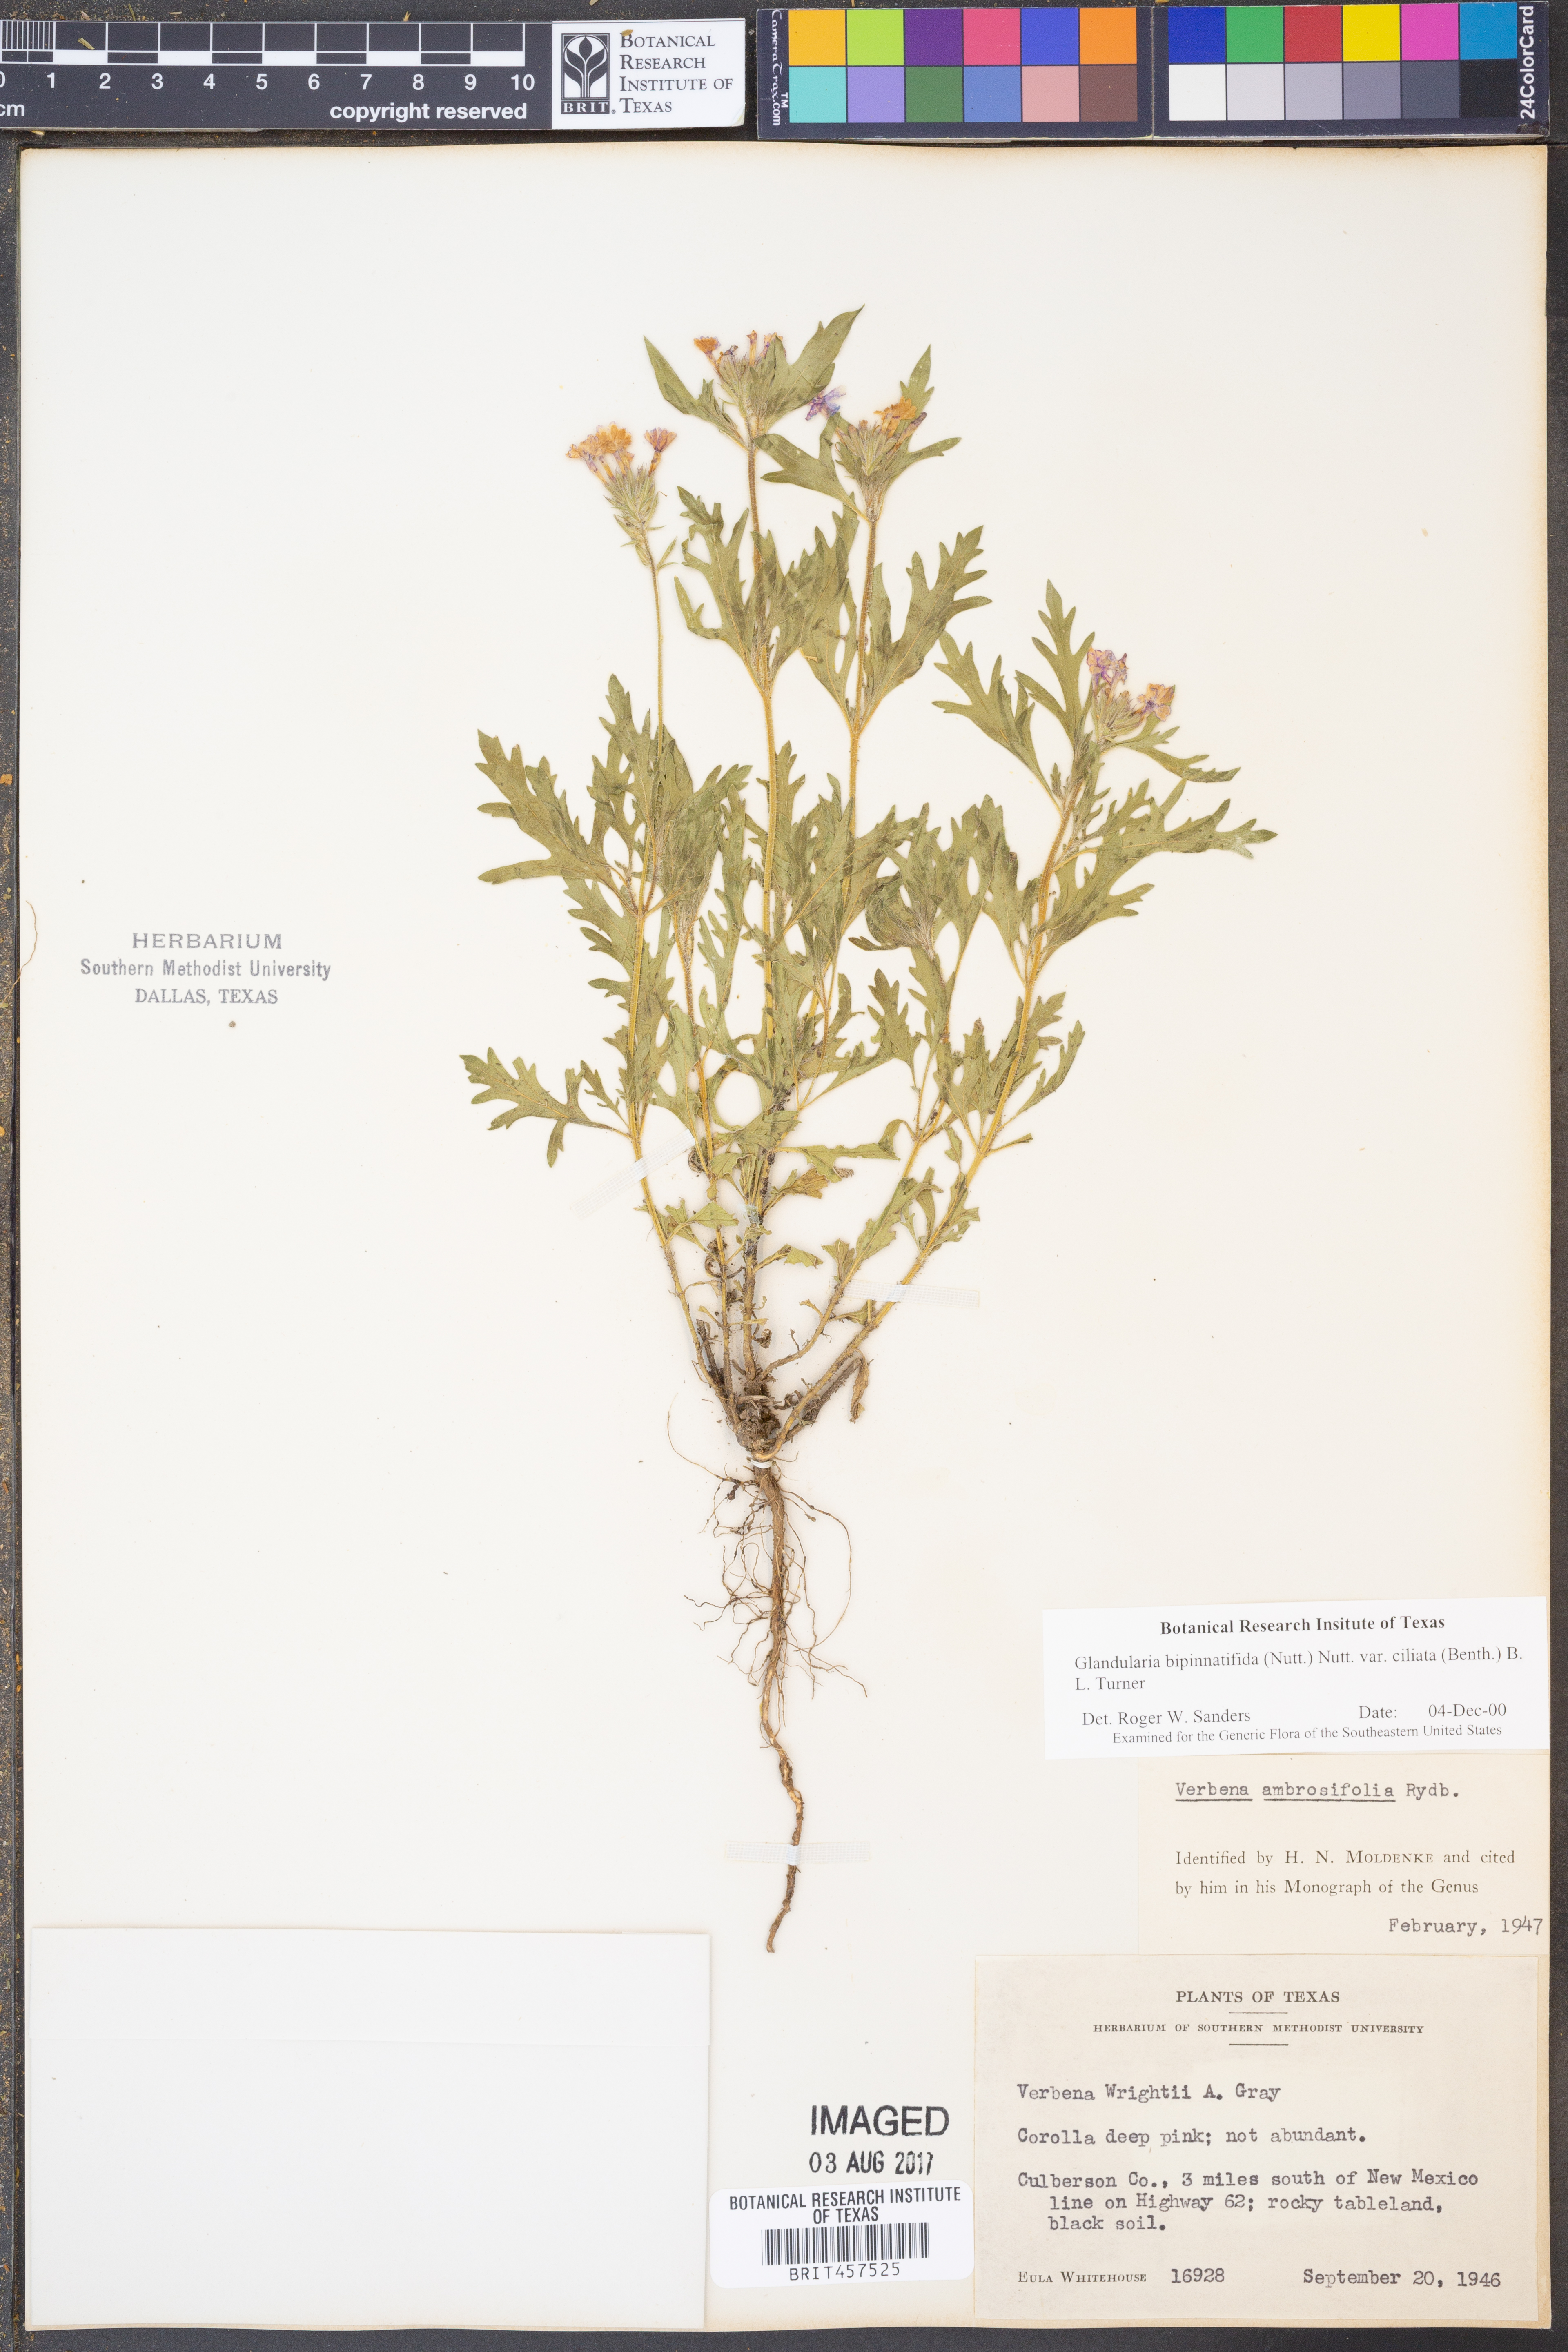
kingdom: Plantae
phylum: Tracheophyta
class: Magnoliopsida
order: Lamiales
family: Verbenaceae
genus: Verbena
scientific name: Verbena bipinnatifida
